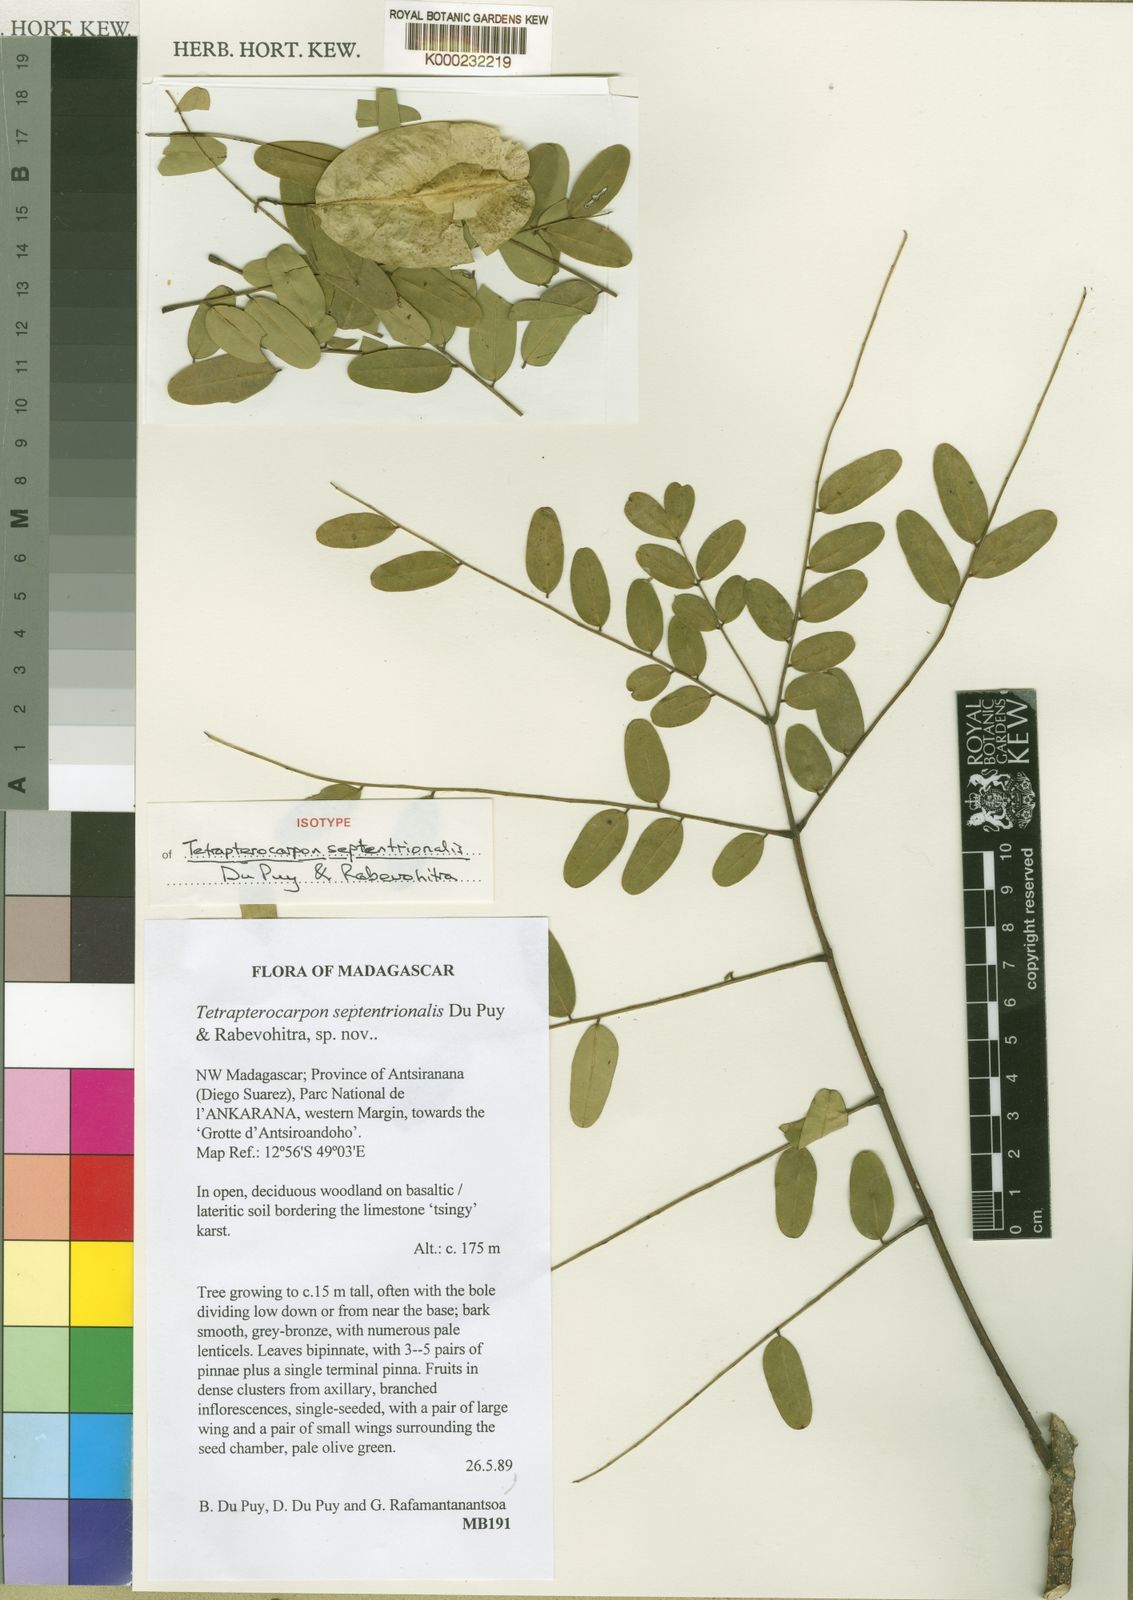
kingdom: Plantae
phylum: Tracheophyta
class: Magnoliopsida
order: Fabales
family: Fabaceae
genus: Tetrapterocarpon
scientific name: Tetrapterocarpon septentrionale
